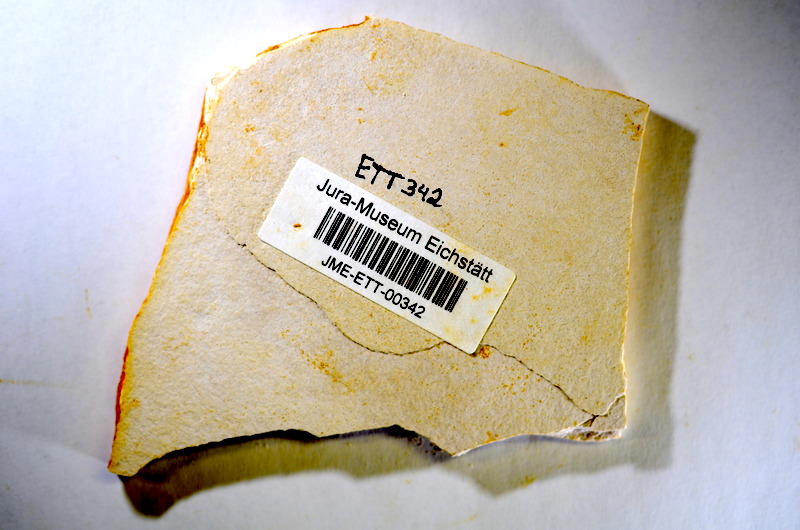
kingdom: Animalia
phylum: Chordata
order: Salmoniformes
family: Orthogonikleithridae
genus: Orthogonikleithrus
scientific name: Orthogonikleithrus hoelli
